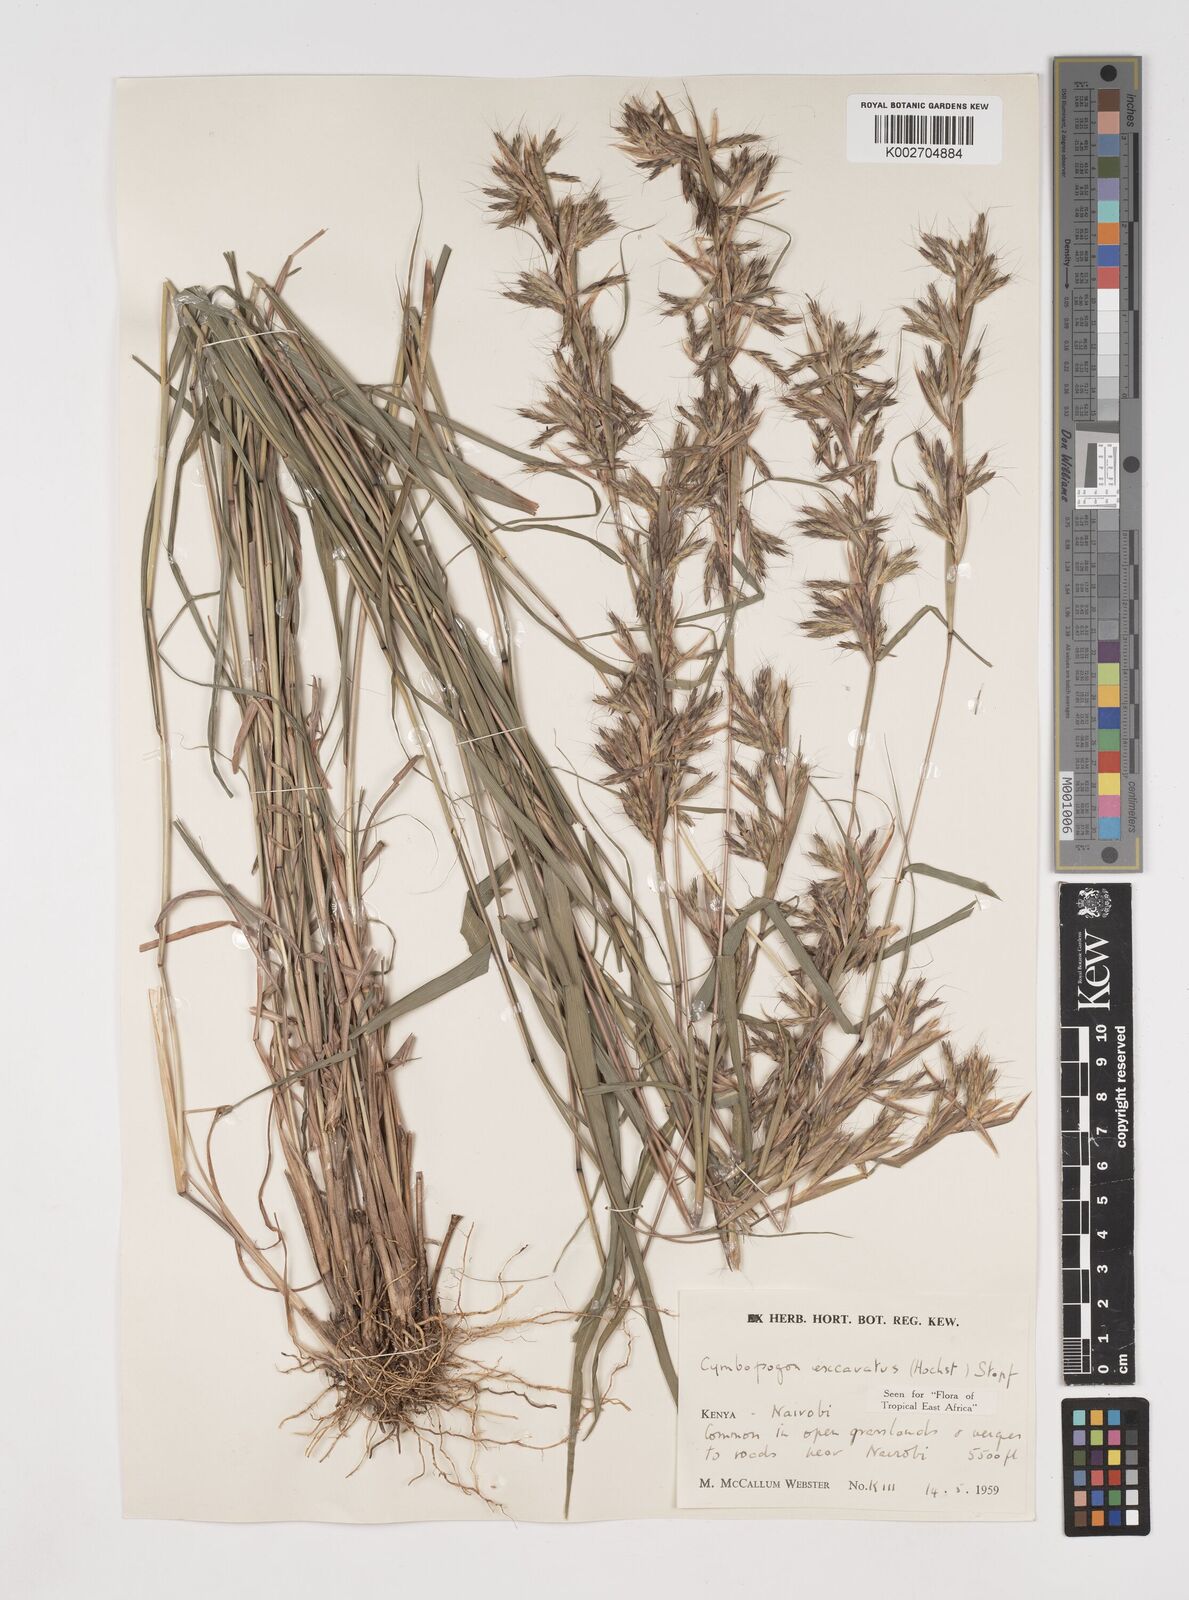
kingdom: Plantae
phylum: Tracheophyta
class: Liliopsida
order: Poales
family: Poaceae
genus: Cymbopogon
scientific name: Cymbopogon caesius
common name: Kachi grass
